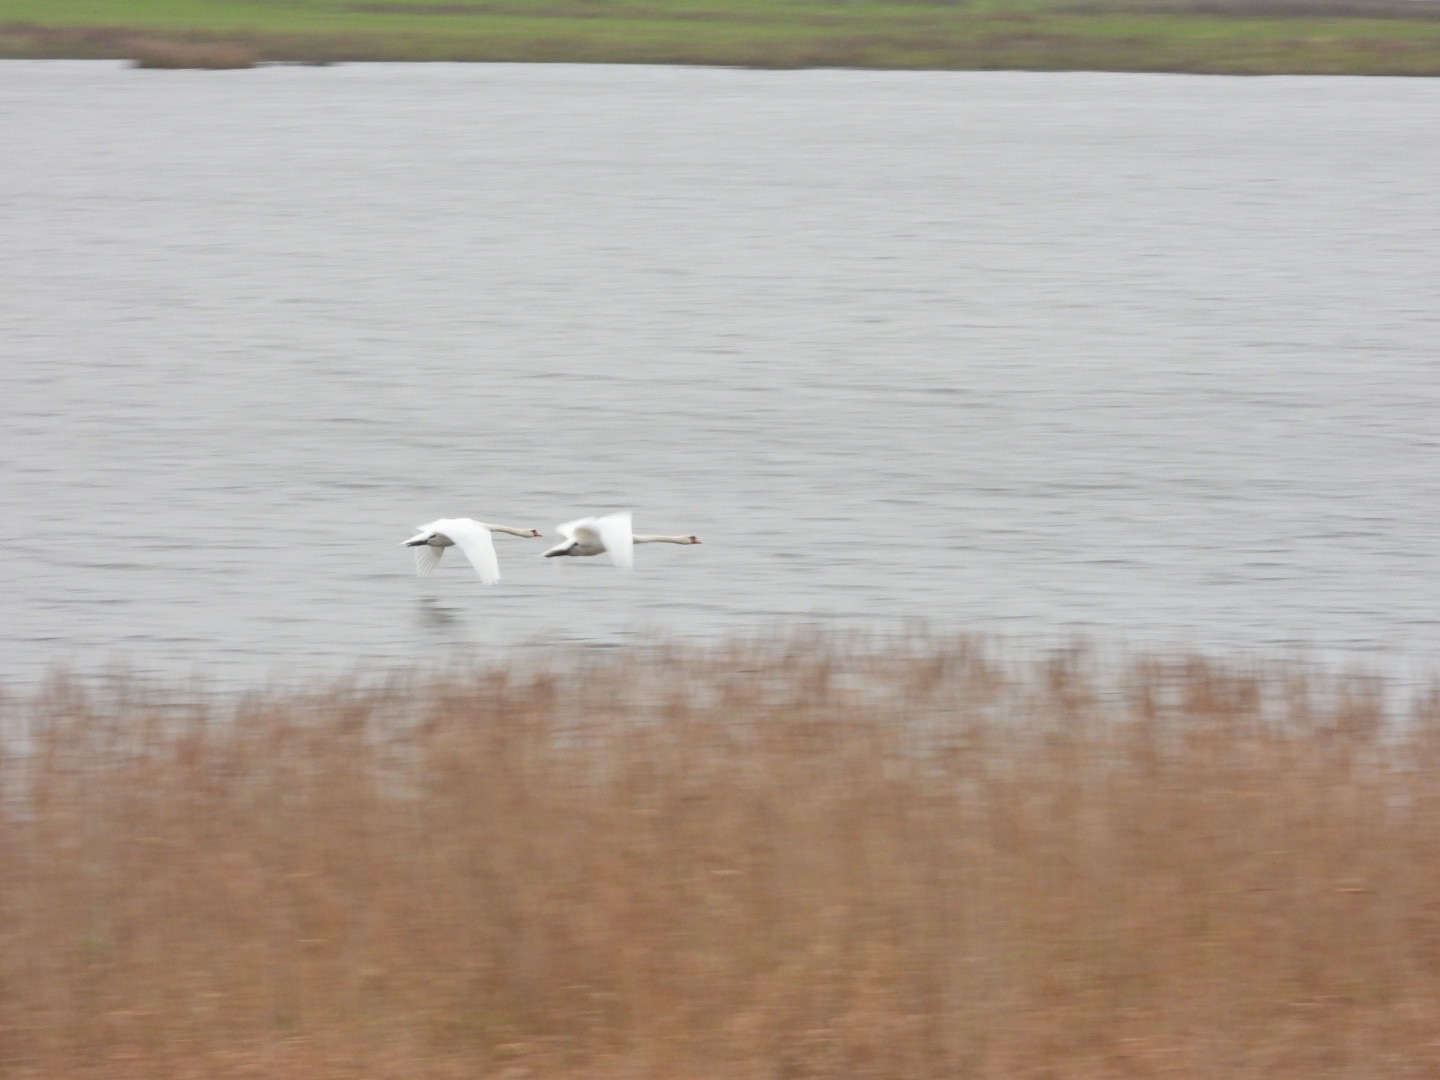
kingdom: Animalia
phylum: Chordata
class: Aves
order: Anseriformes
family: Anatidae
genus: Cygnus
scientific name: Cygnus olor
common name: Knopsvane
